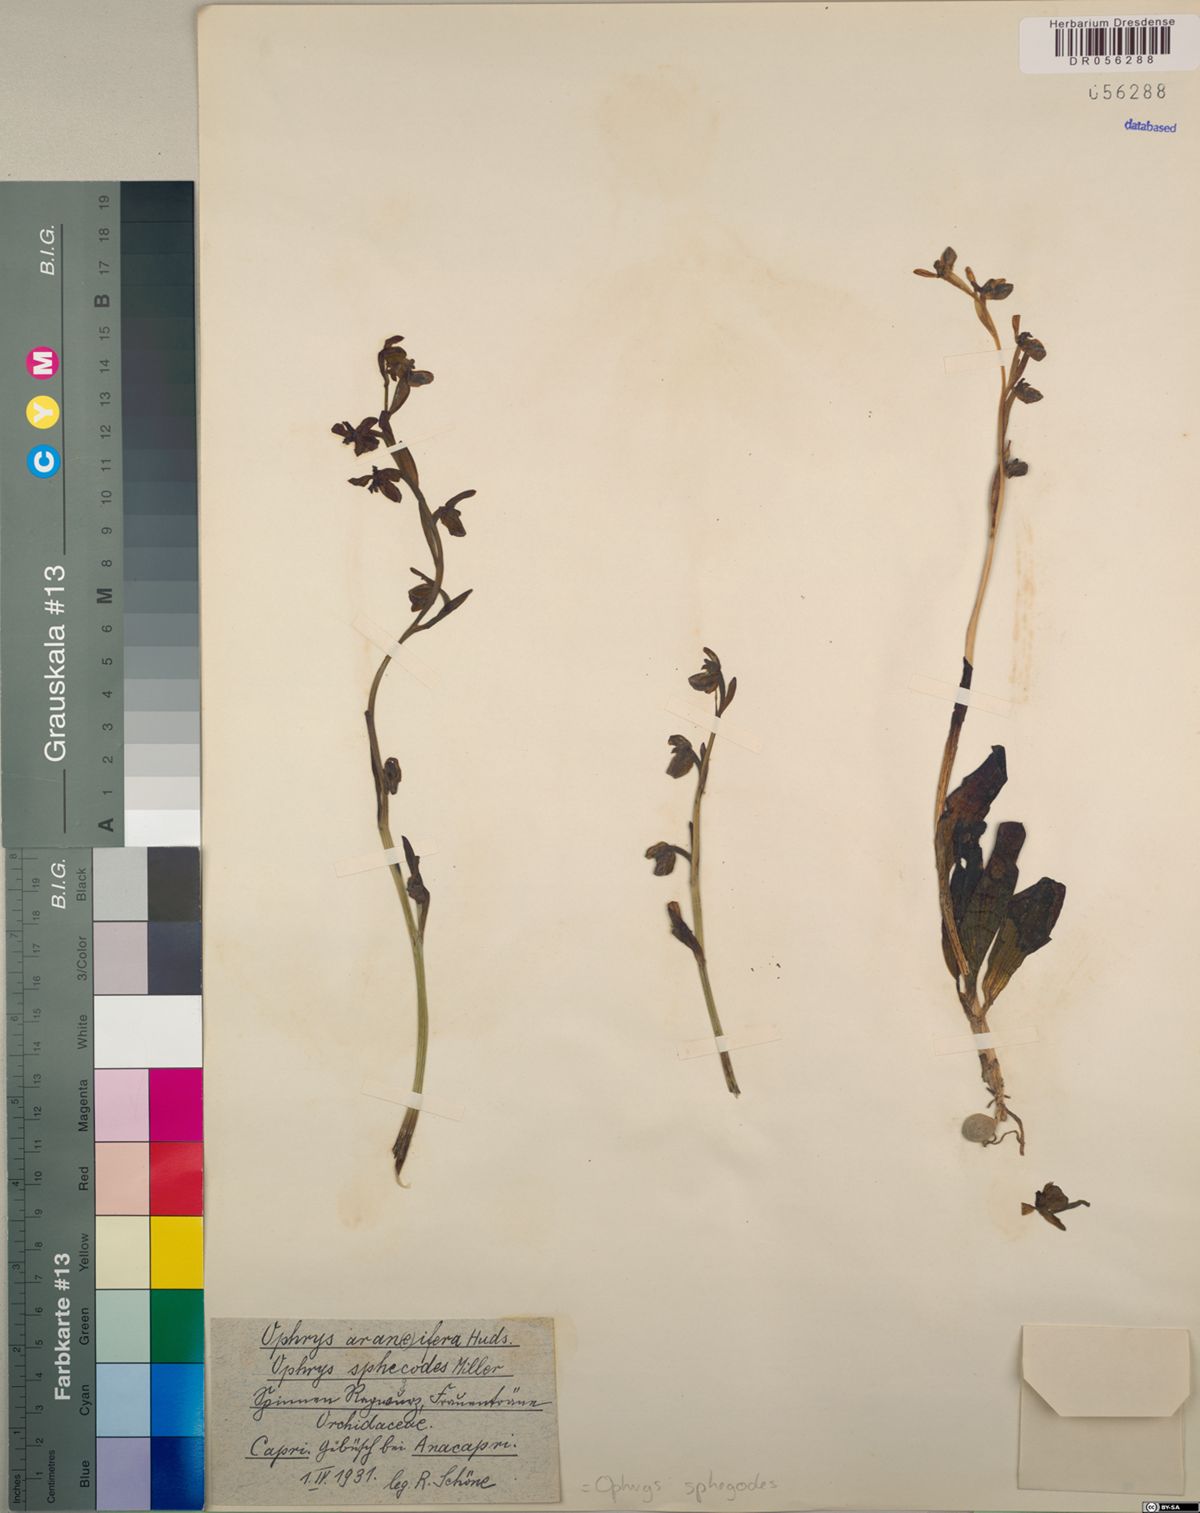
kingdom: Plantae
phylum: Tracheophyta
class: Liliopsida
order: Asparagales
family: Orchidaceae
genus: Ophrys
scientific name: Ophrys sphegodes
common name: Early spider-orchid
